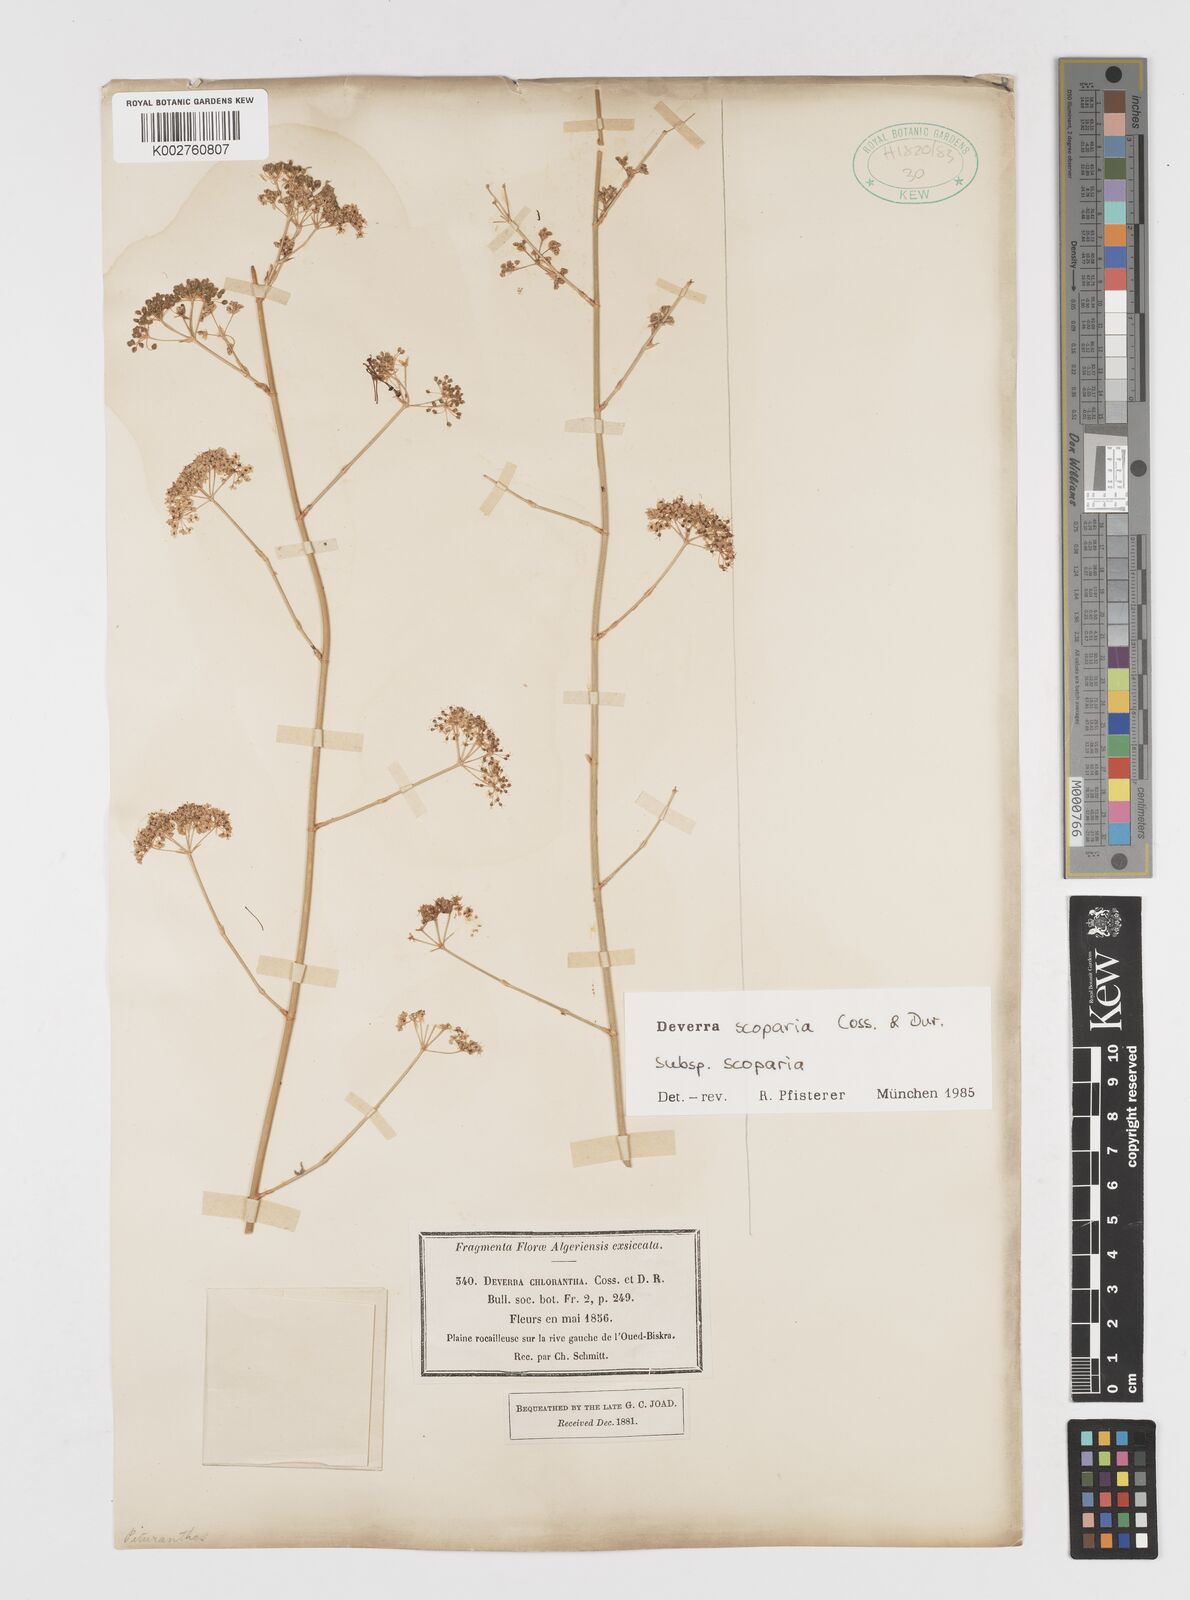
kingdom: Plantae
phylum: Tracheophyta
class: Magnoliopsida
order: Apiales
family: Apiaceae
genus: Deverra
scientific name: Deverra scoparia
